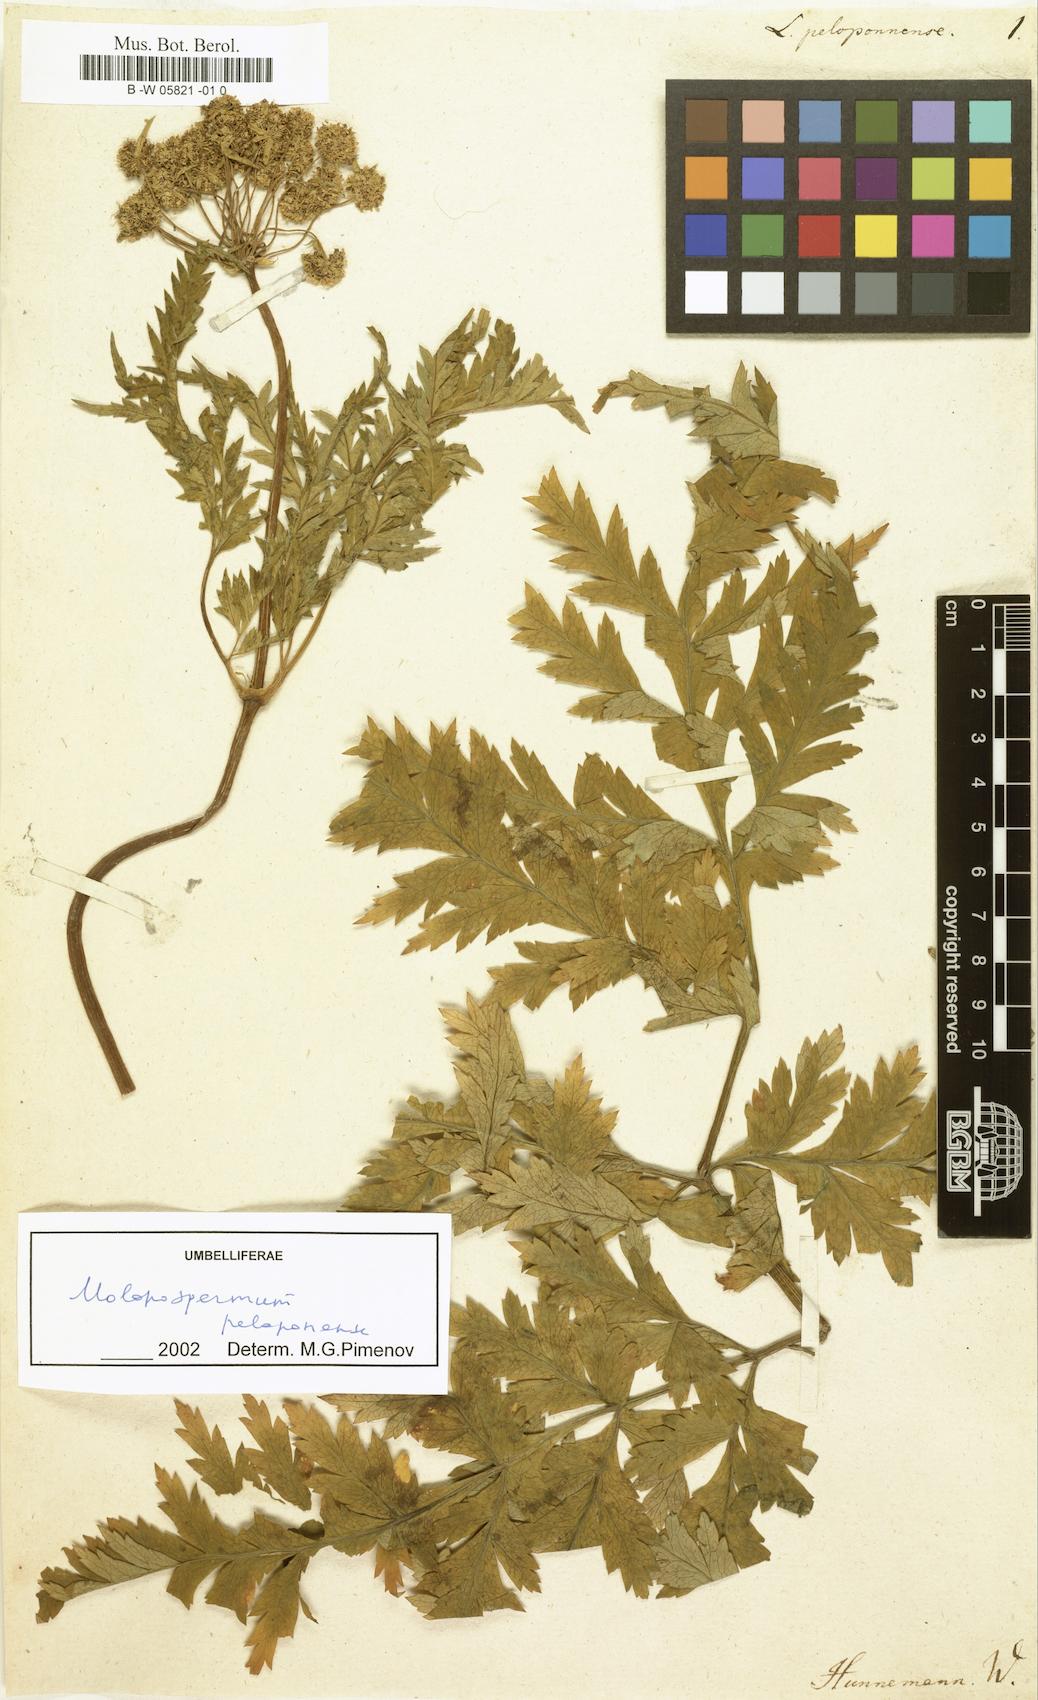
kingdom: Plantae
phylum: Tracheophyta
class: Magnoliopsida
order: Apiales
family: Apiaceae
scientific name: Apiaceae
